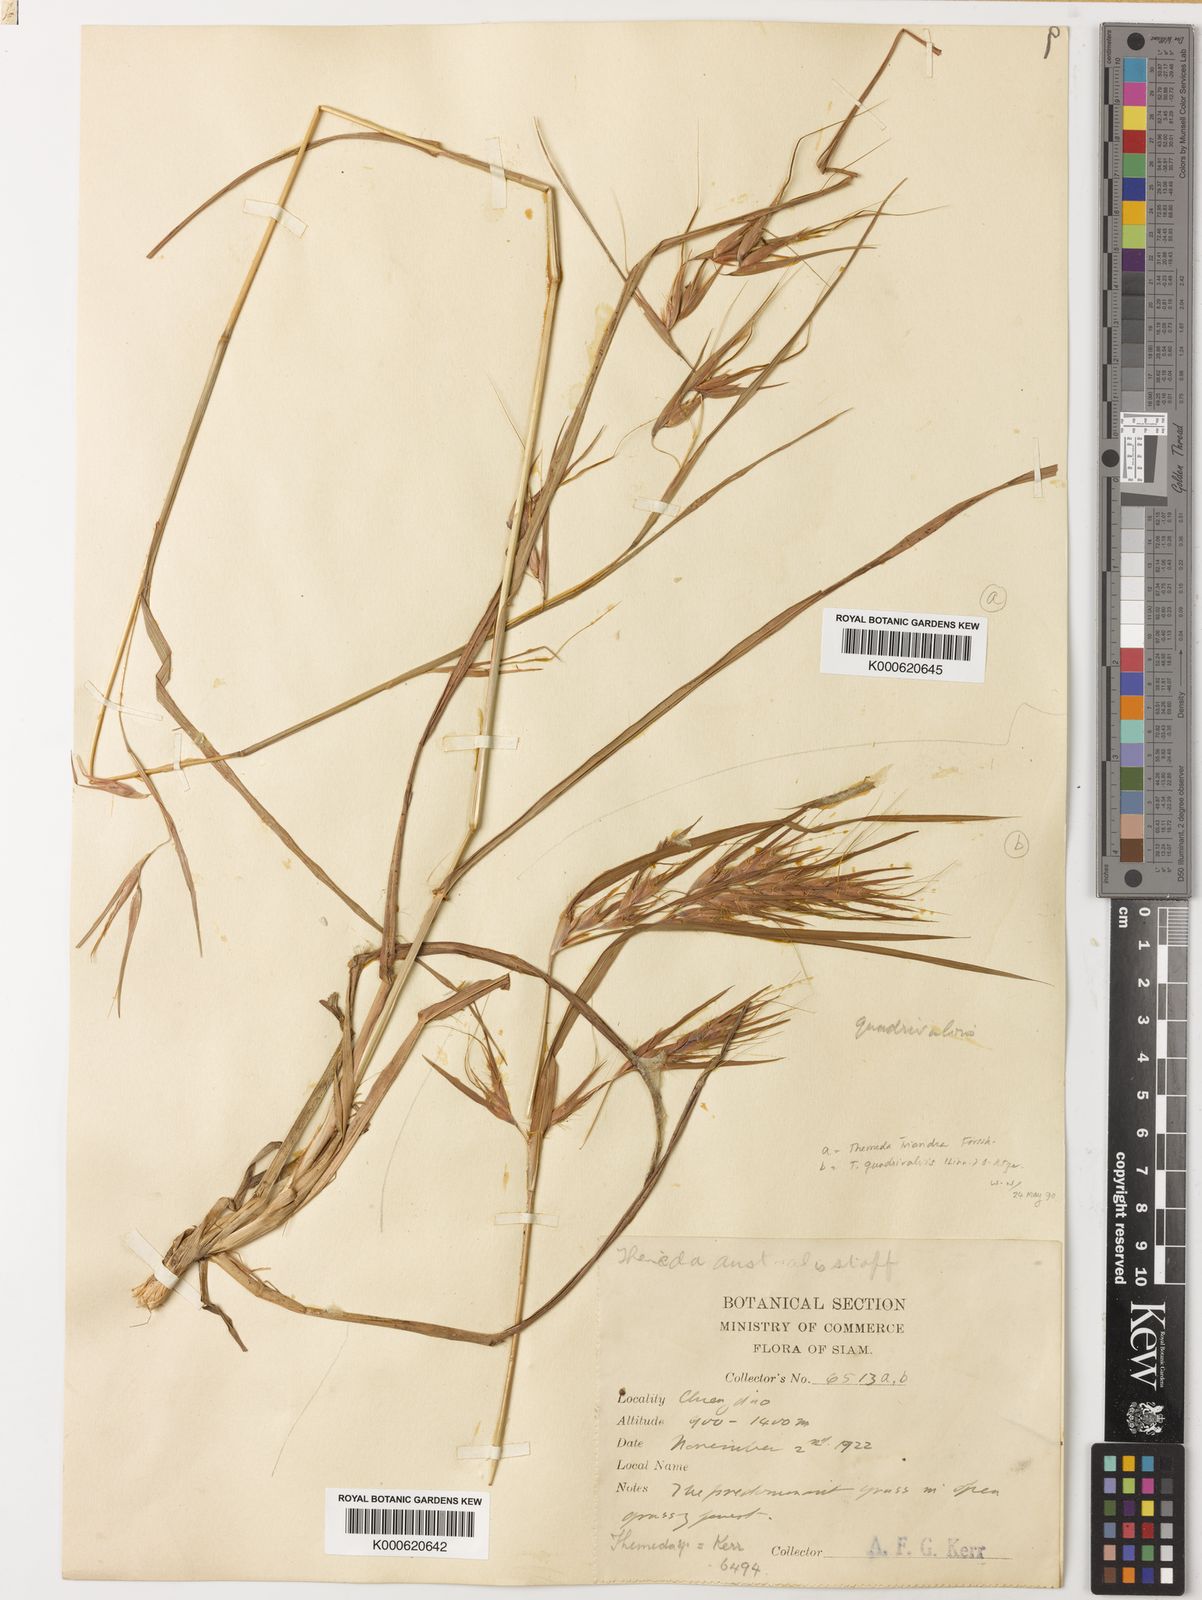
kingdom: Plantae
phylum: Tracheophyta
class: Liliopsida
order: Poales
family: Poaceae
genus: Themeda
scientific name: Themeda quadrivalvis
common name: Kangaroo grass
